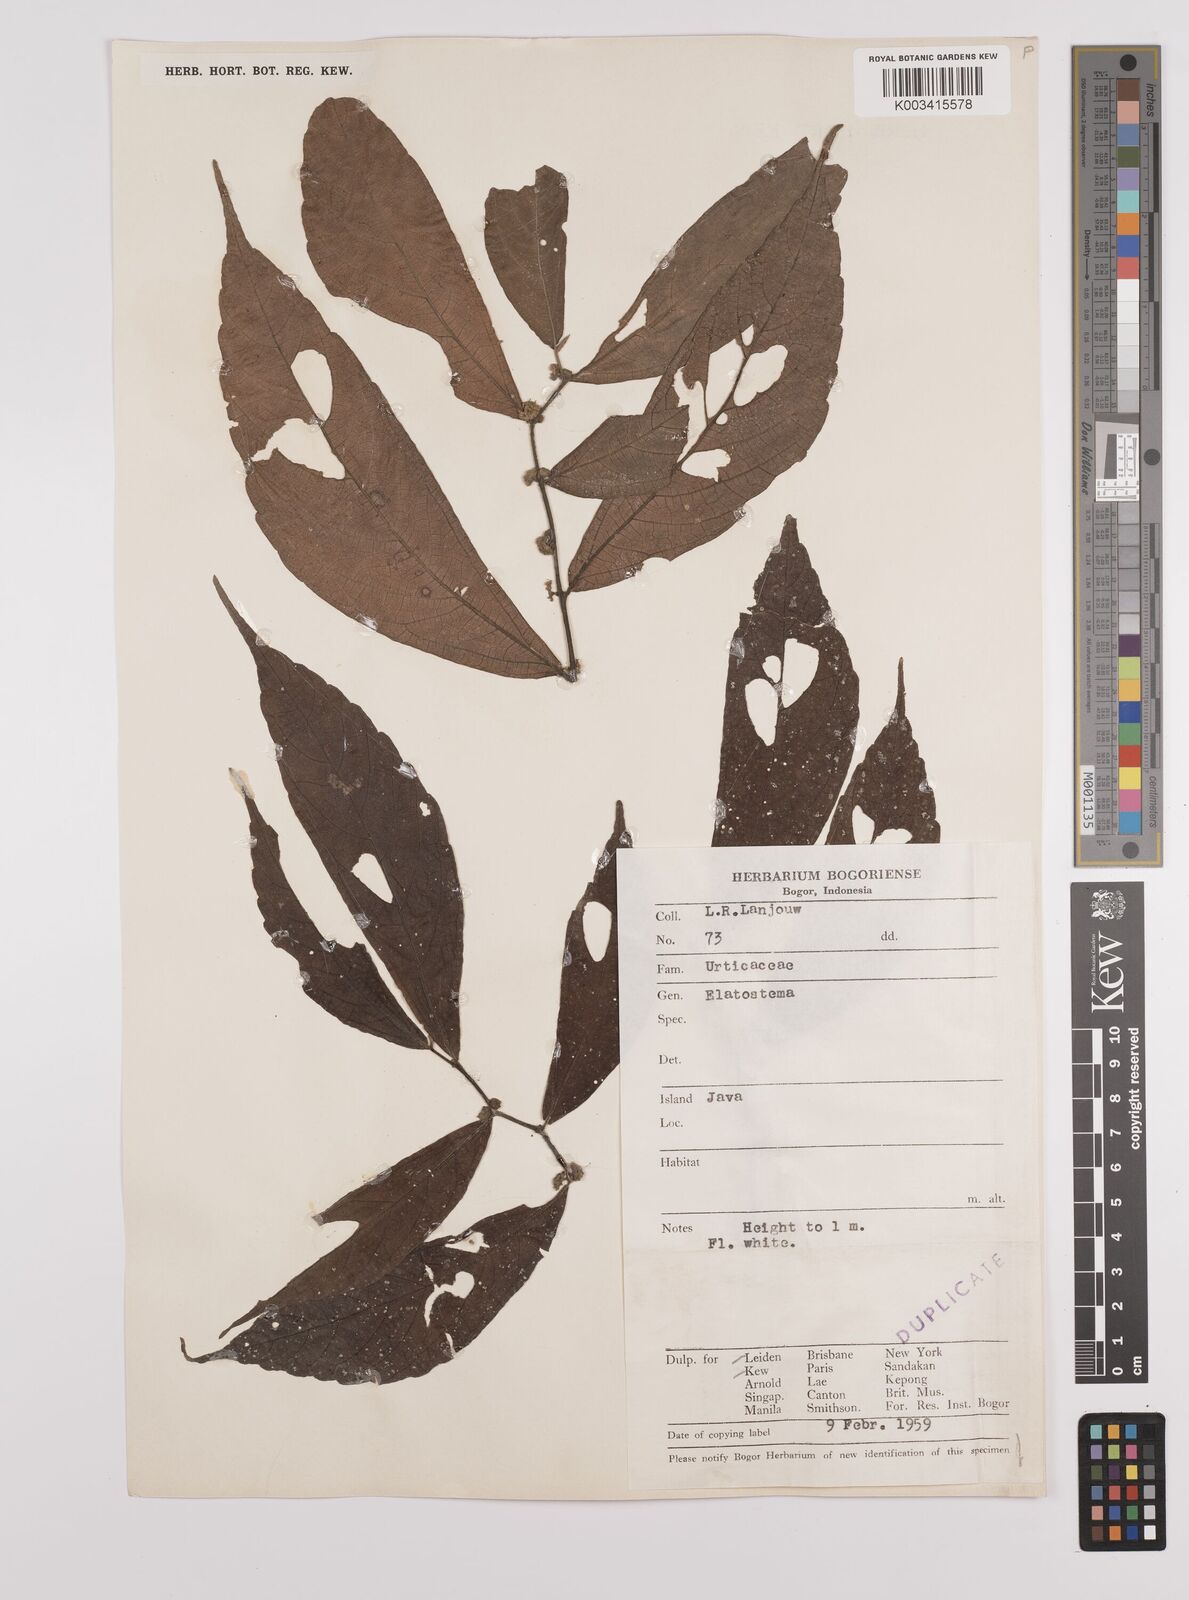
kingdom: Plantae
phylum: Tracheophyta
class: Magnoliopsida
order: Rosales
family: Urticaceae
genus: Elatostema
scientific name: Elatostema
